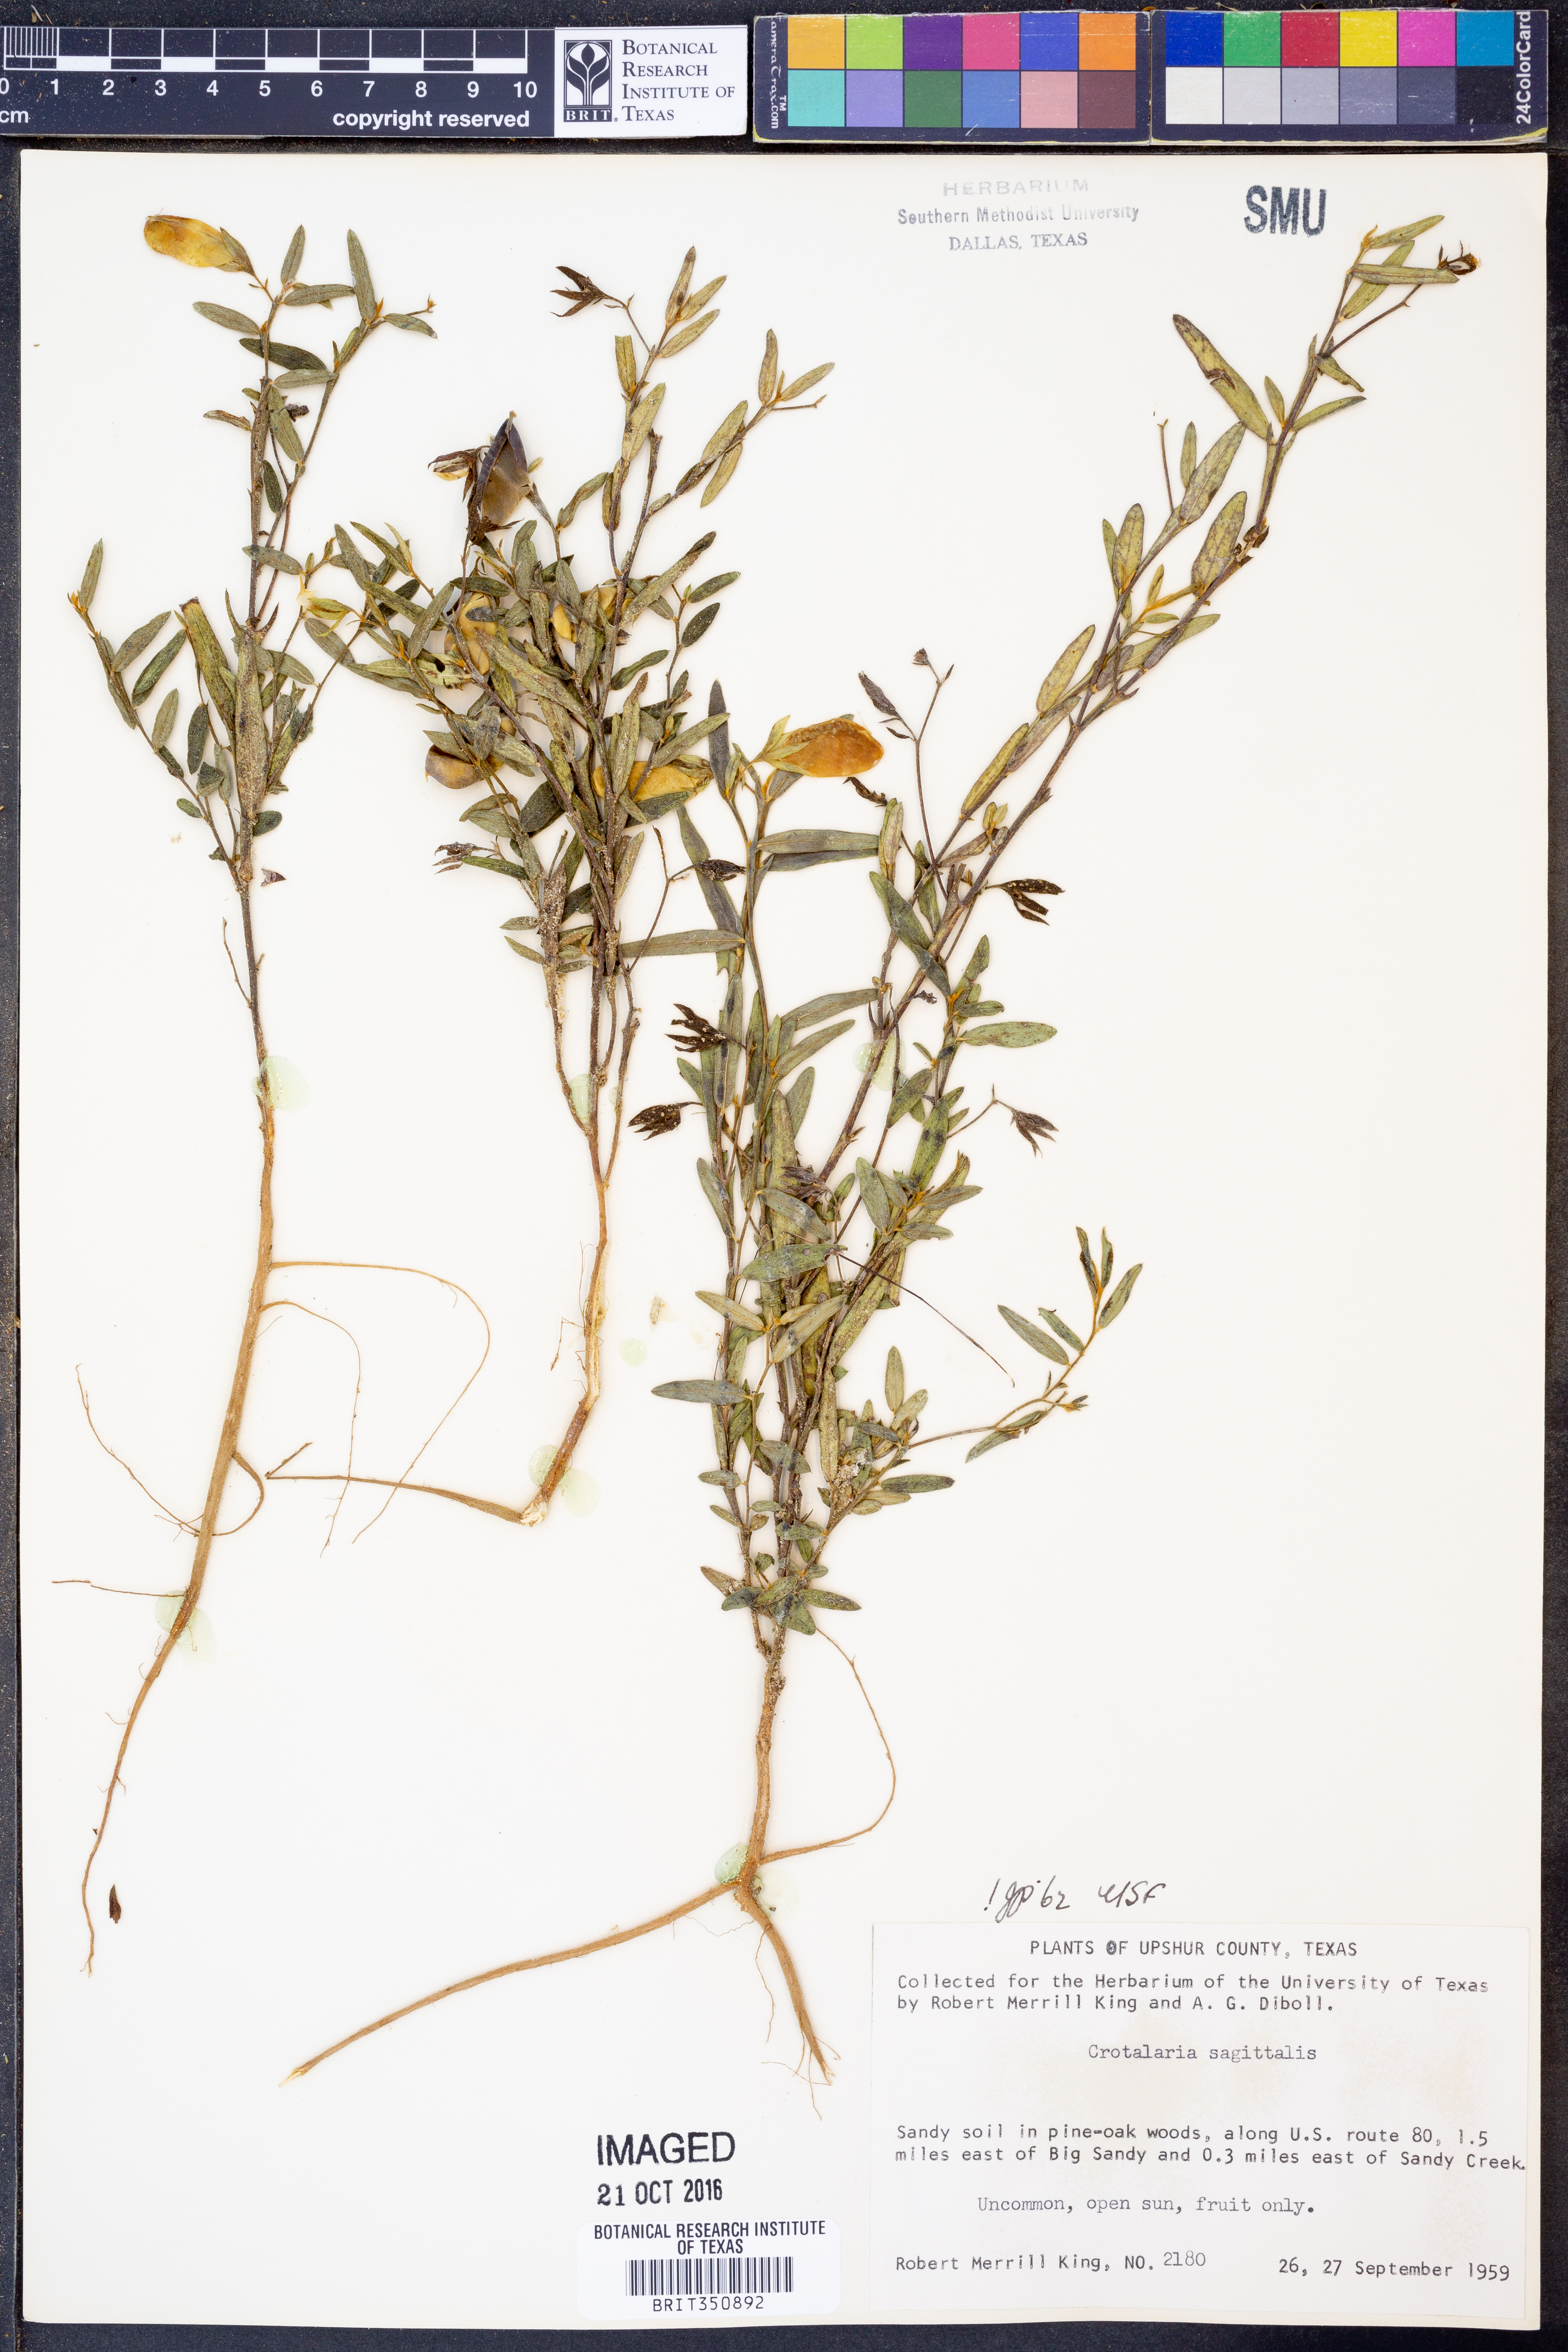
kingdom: Plantae
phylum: Tracheophyta
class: Magnoliopsida
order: Fabales
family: Fabaceae
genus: Crotalaria
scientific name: Crotalaria sagittalis
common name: Arrowhead rattlebox
